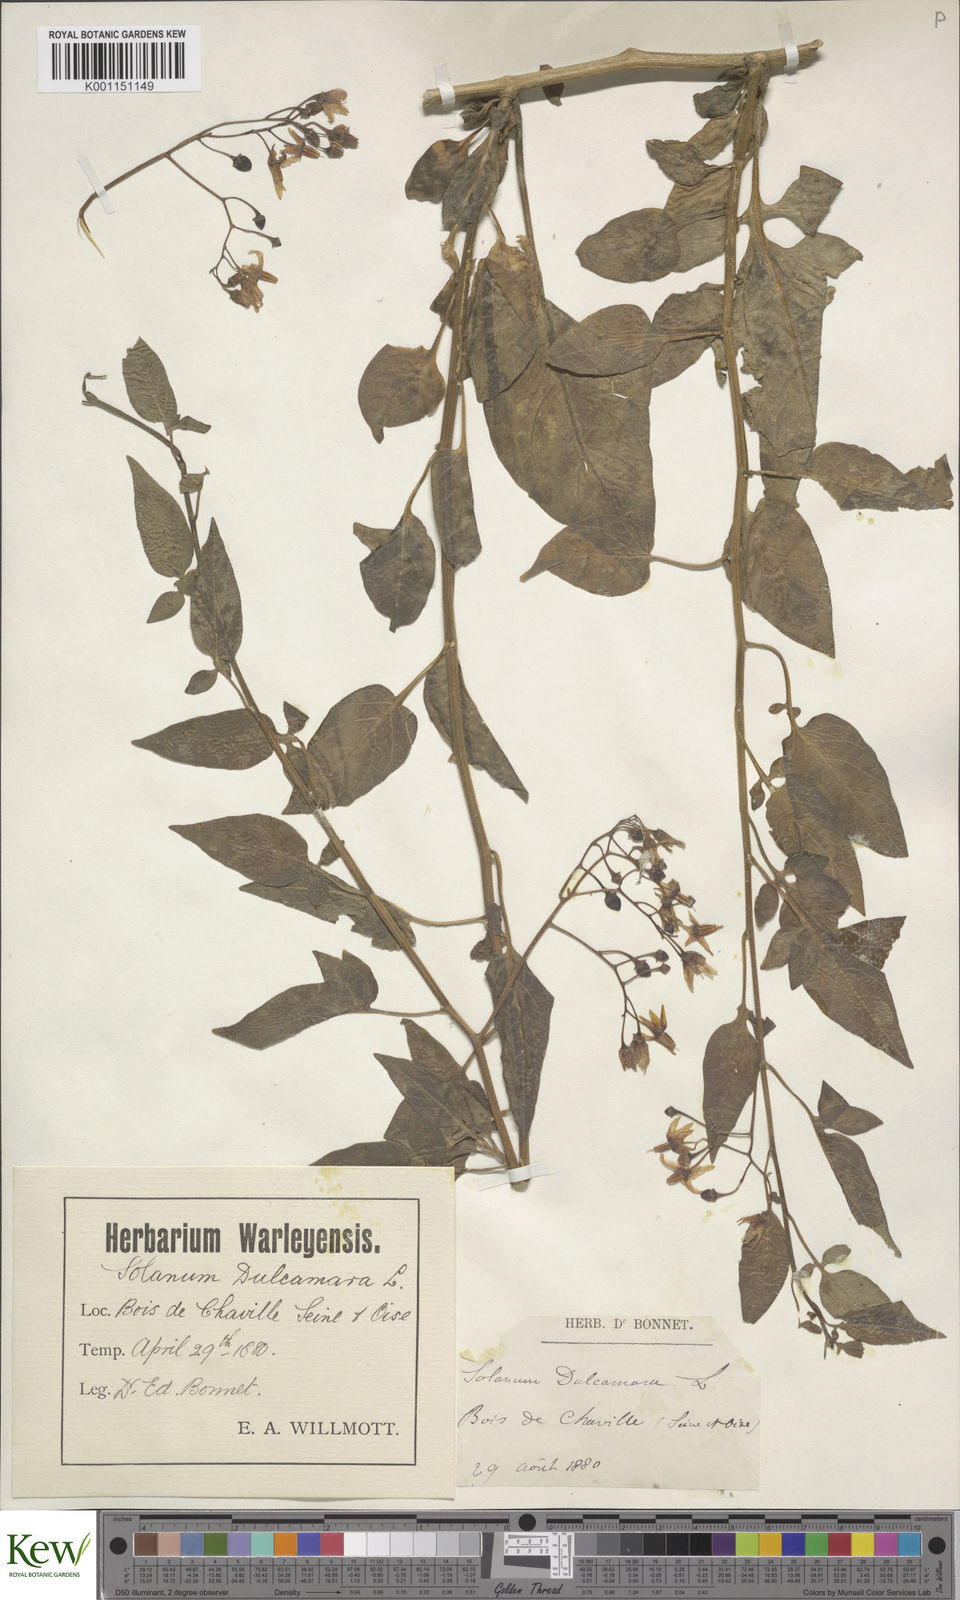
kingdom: Plantae
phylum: Tracheophyta
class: Magnoliopsida
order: Solanales
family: Solanaceae
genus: Solanum
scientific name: Solanum dulcamara
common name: Climbing nightshade
